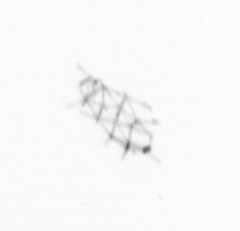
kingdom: Chromista
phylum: Ochrophyta
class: Bacillariophyceae
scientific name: Bacillariophyceae
